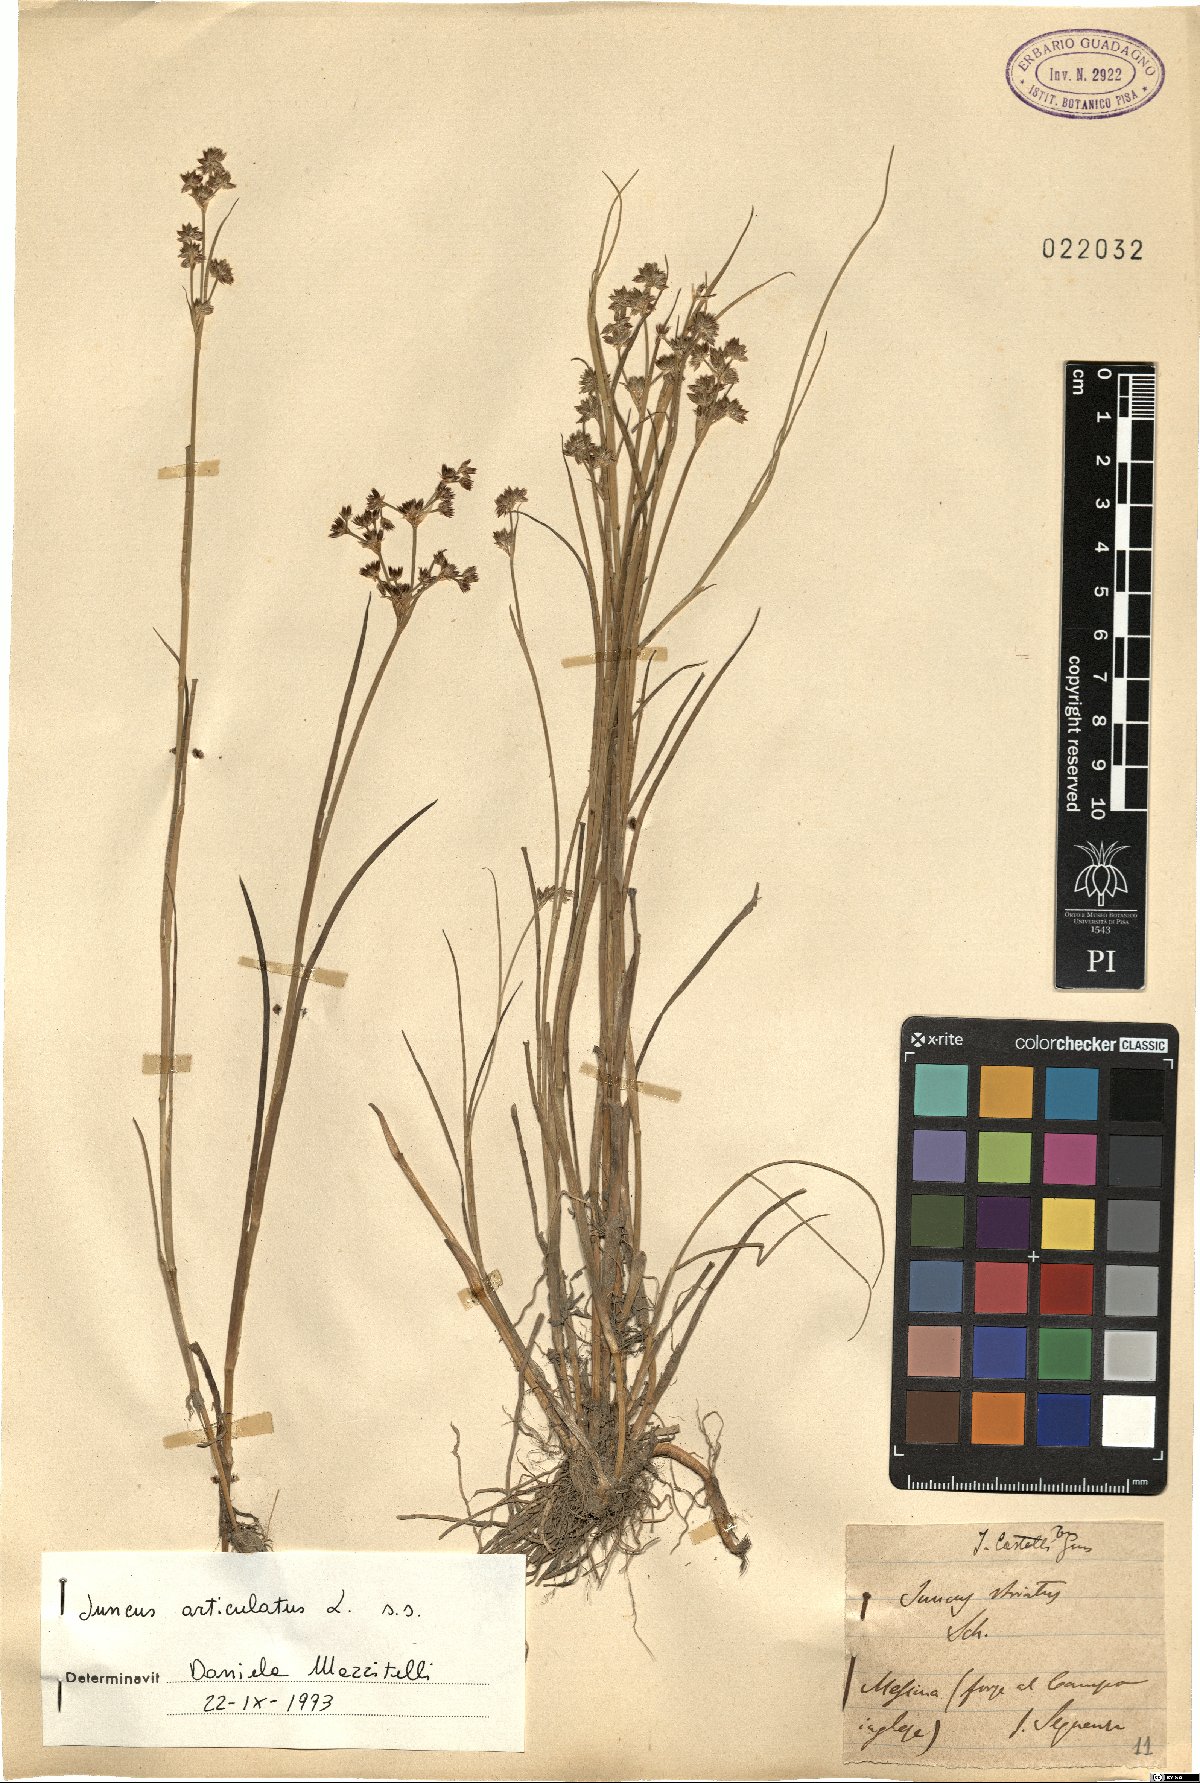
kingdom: Plantae
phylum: Tracheophyta
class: Liliopsida
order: Poales
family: Juncaceae
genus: Juncus
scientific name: Juncus articulatus
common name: Jointed rush
